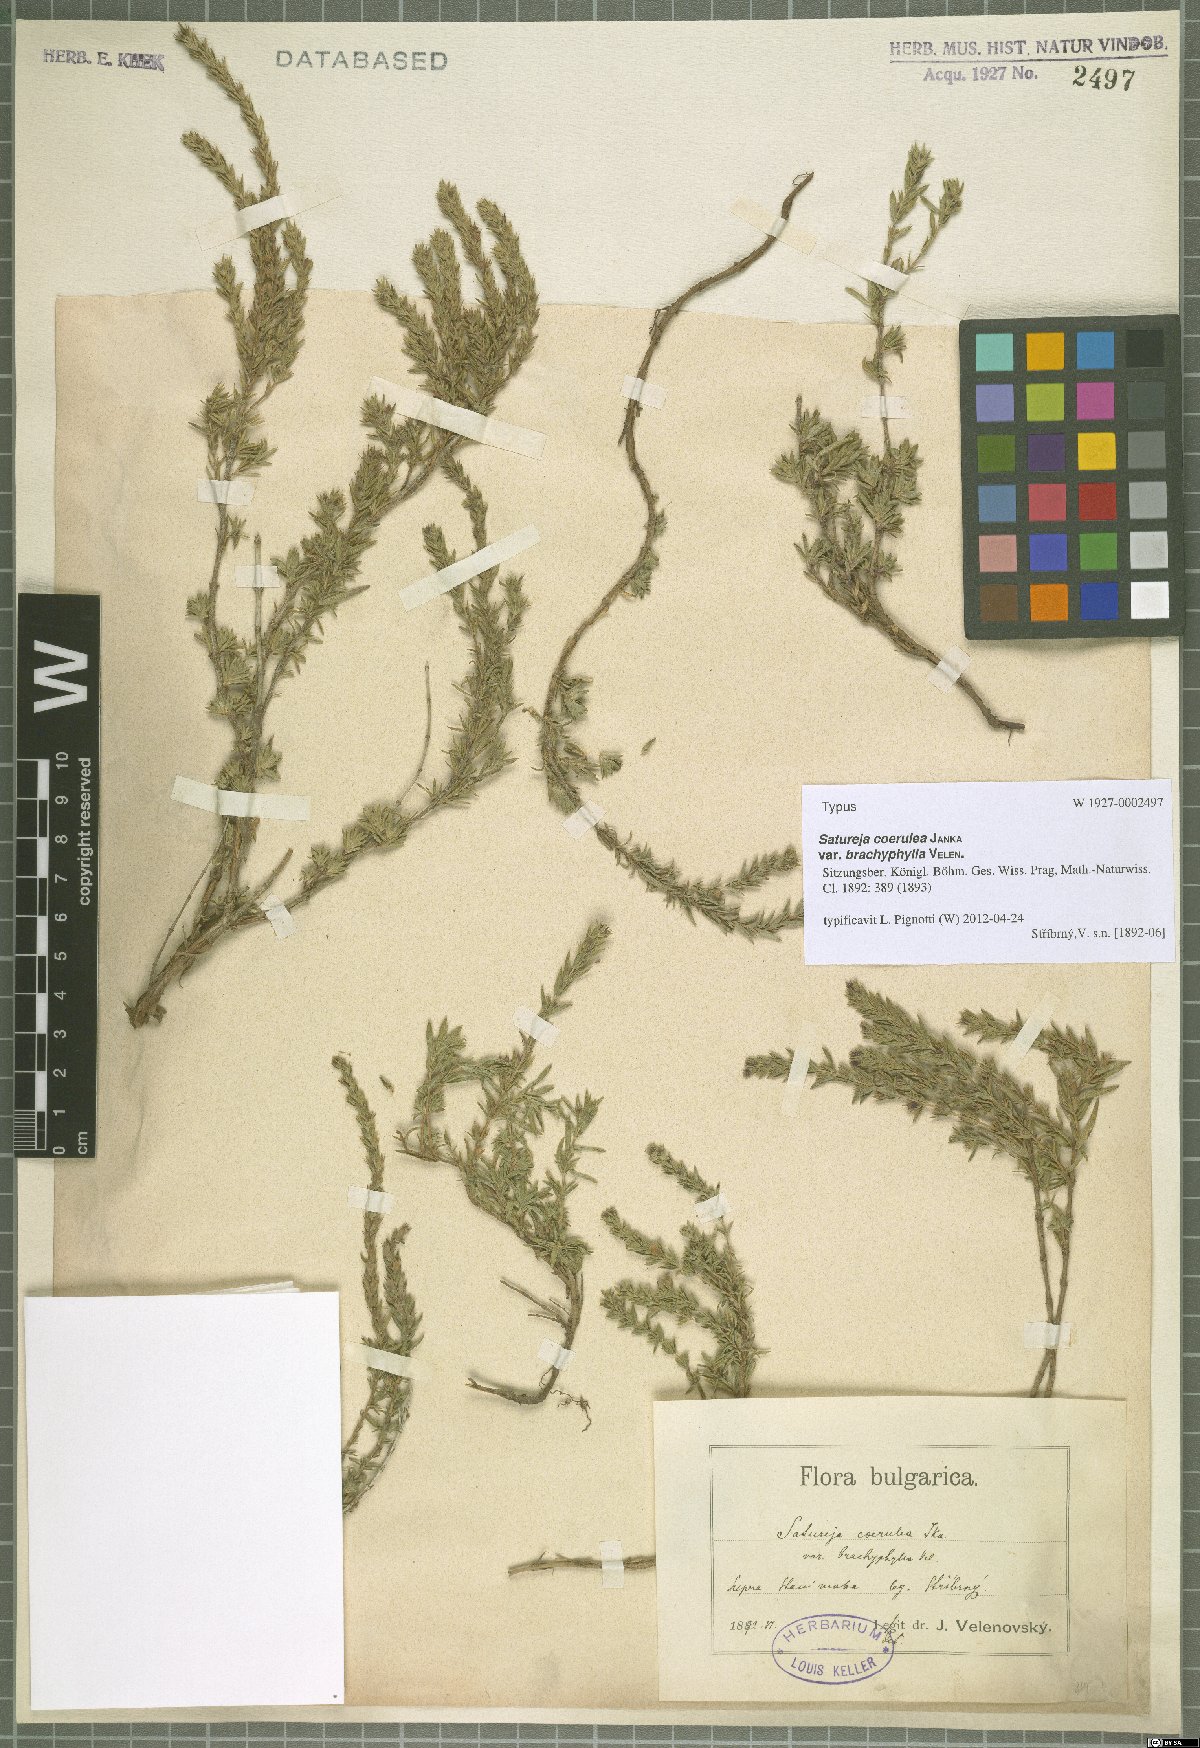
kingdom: Plantae
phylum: Tracheophyta
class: Magnoliopsida
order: Lamiales
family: Lamiaceae
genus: Satureja
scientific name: Satureja coerulea
